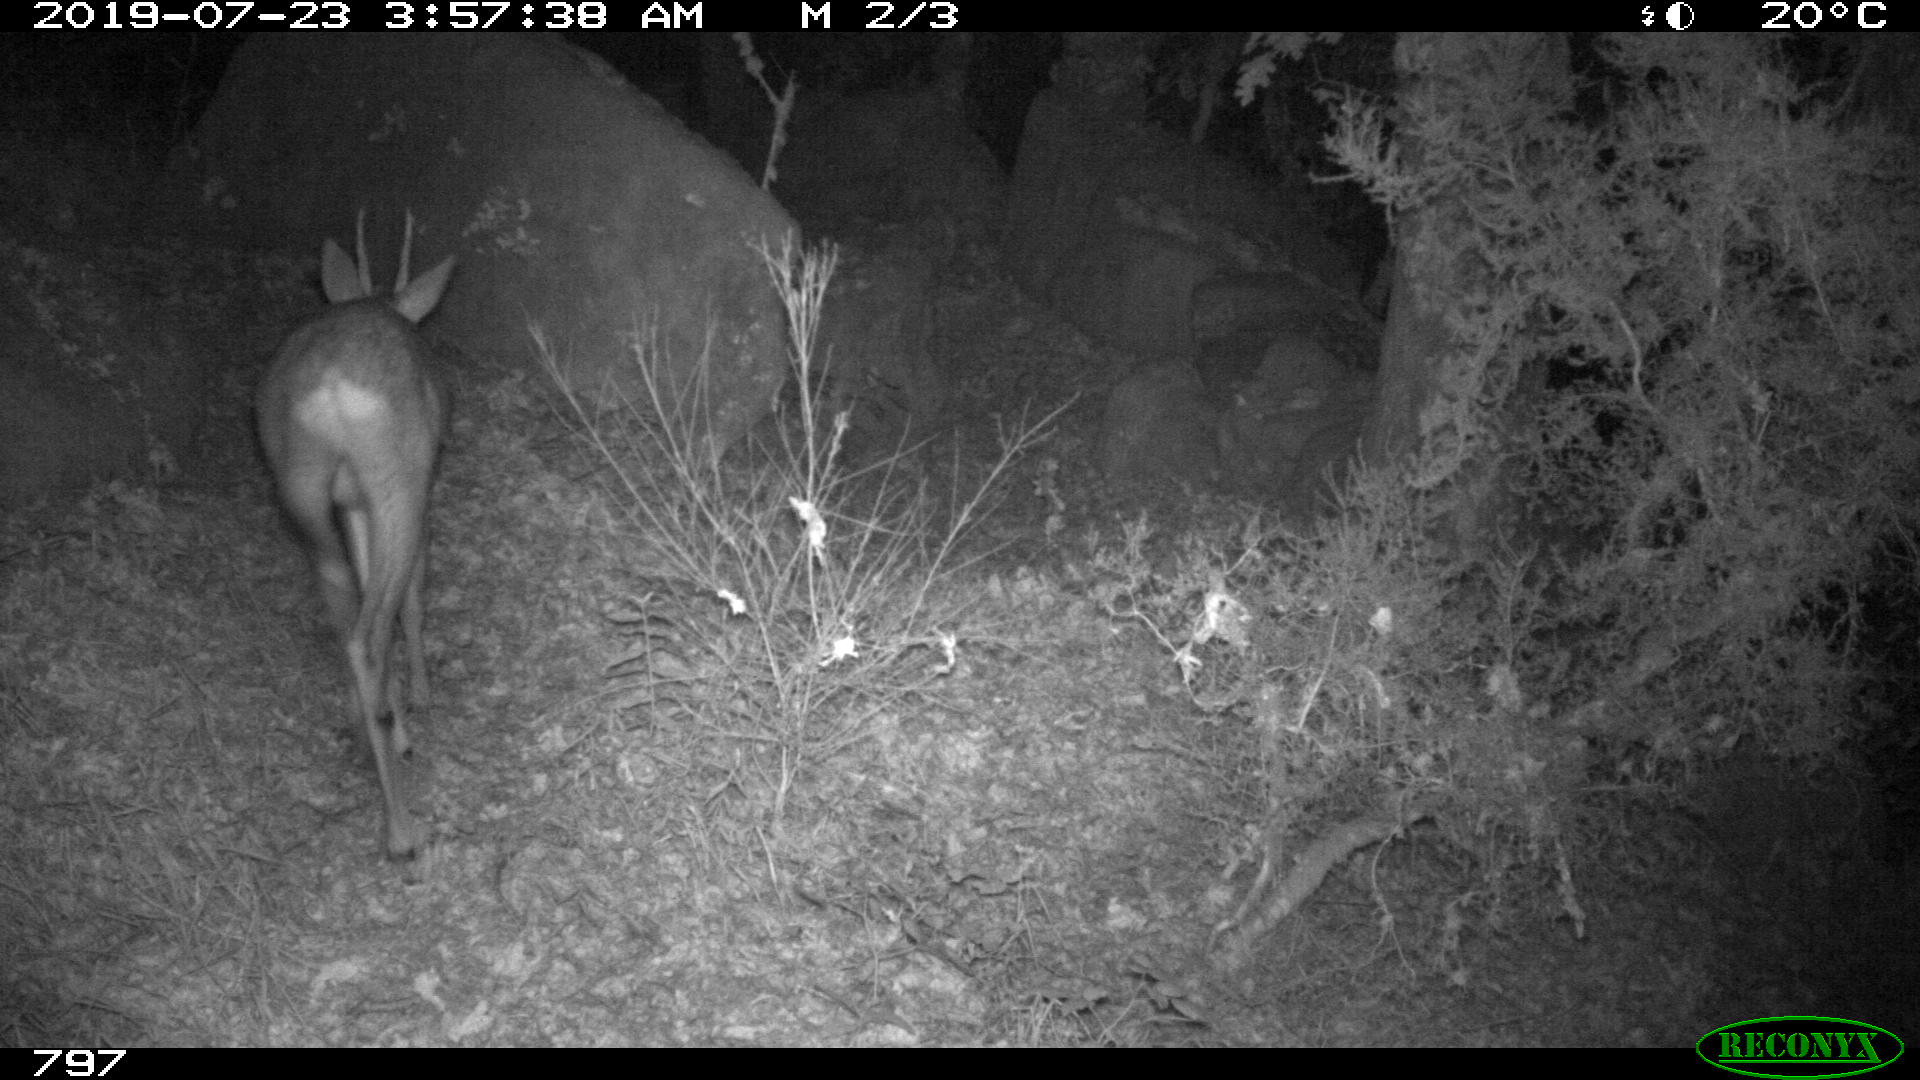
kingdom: Animalia
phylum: Chordata
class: Mammalia
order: Artiodactyla
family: Cervidae
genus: Capreolus
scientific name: Capreolus capreolus
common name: Western roe deer
